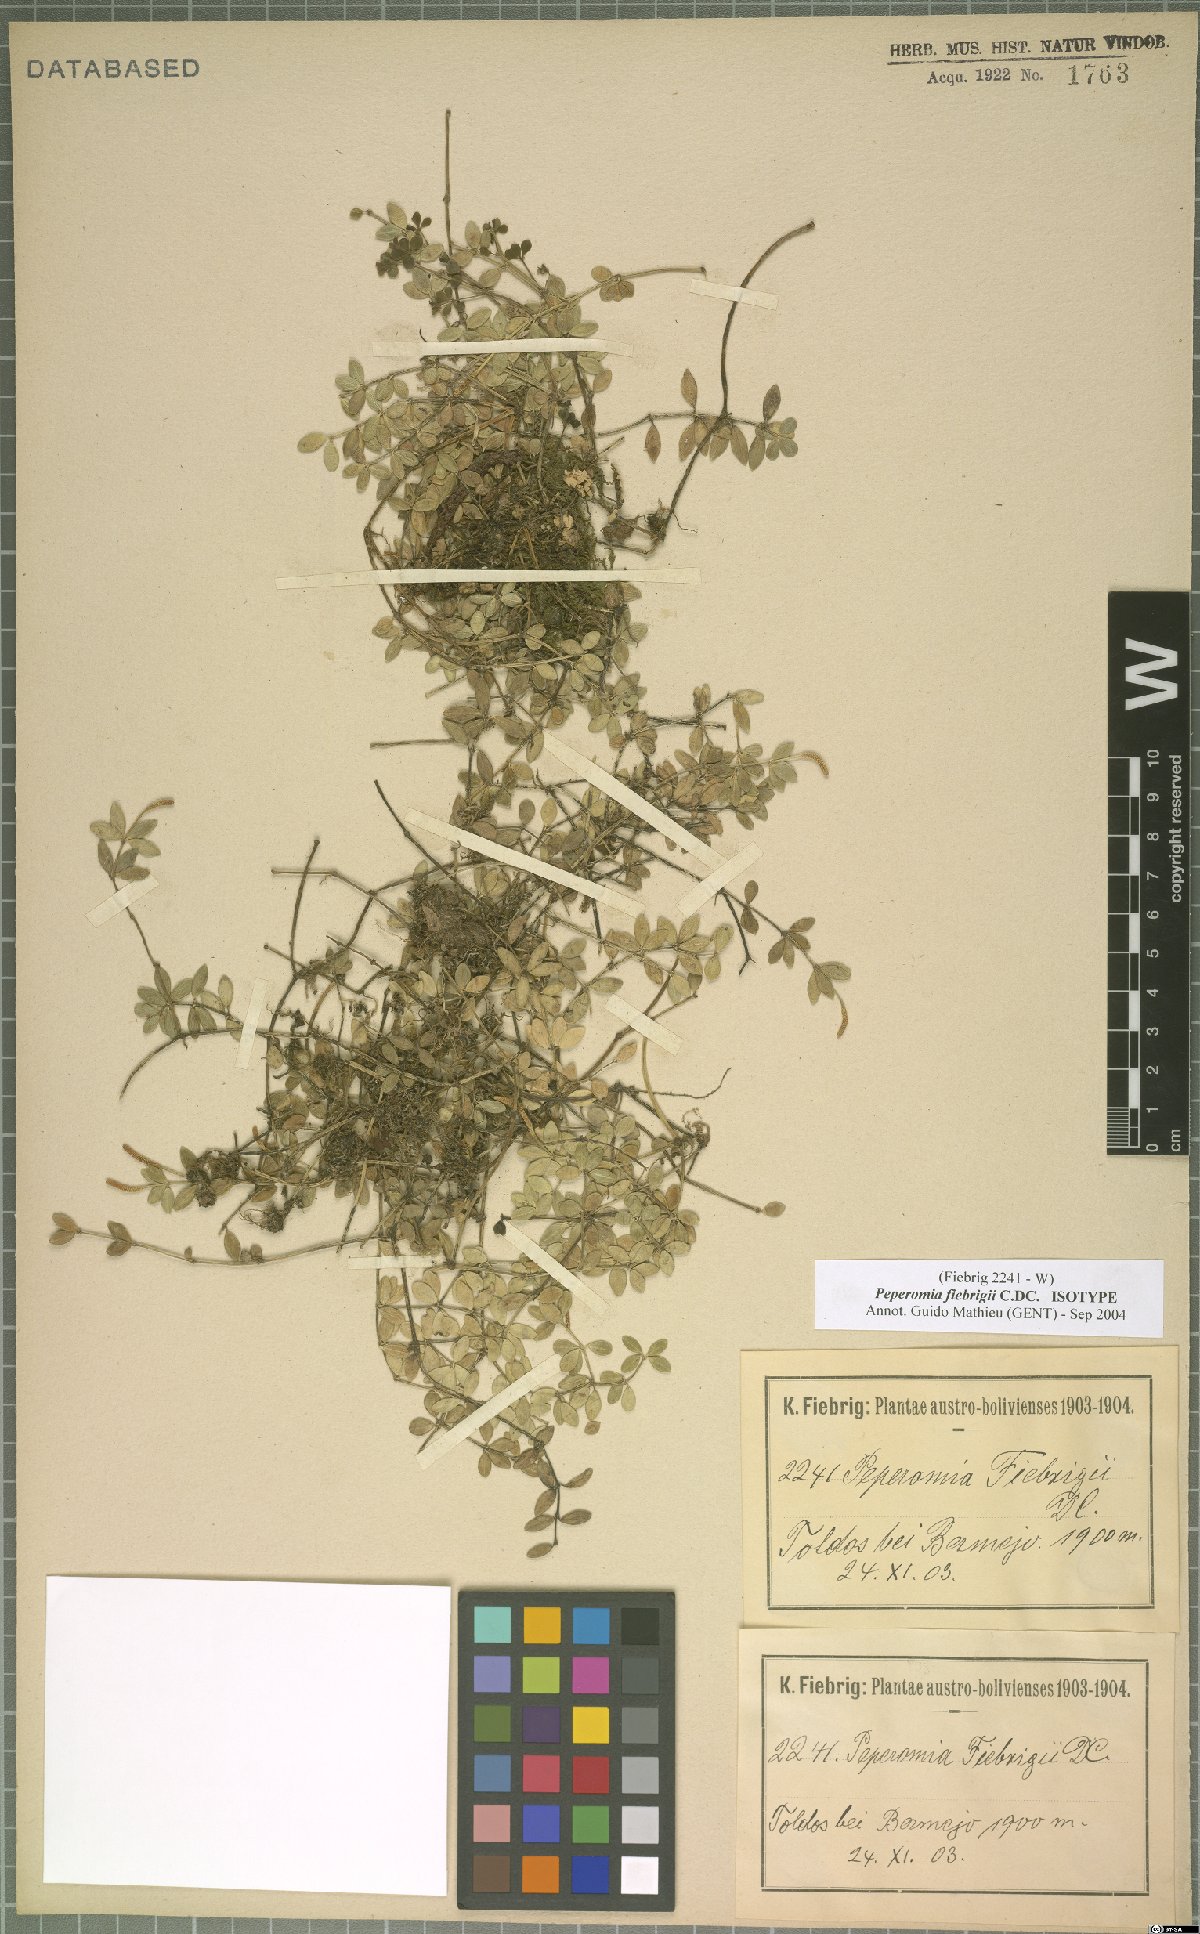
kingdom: Plantae
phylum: Tracheophyta
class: Magnoliopsida
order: Piperales
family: Piperaceae
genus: Peperomia
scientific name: Peperomia tominana
